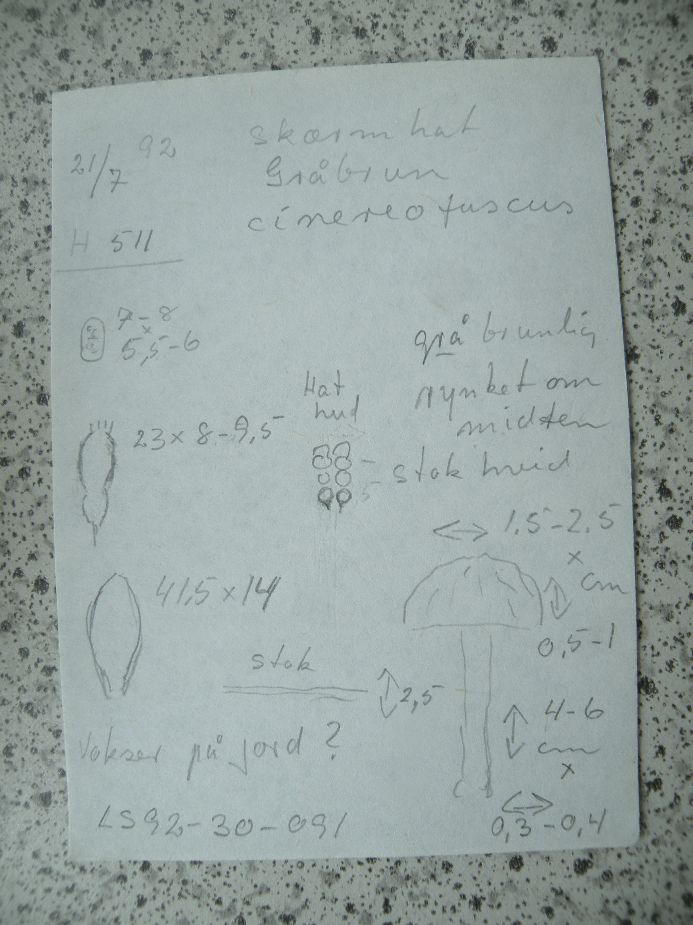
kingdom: Fungi
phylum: Basidiomycota
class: Agaricomycetes
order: Agaricales
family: Pluteaceae
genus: Pluteus
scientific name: Pluteus
